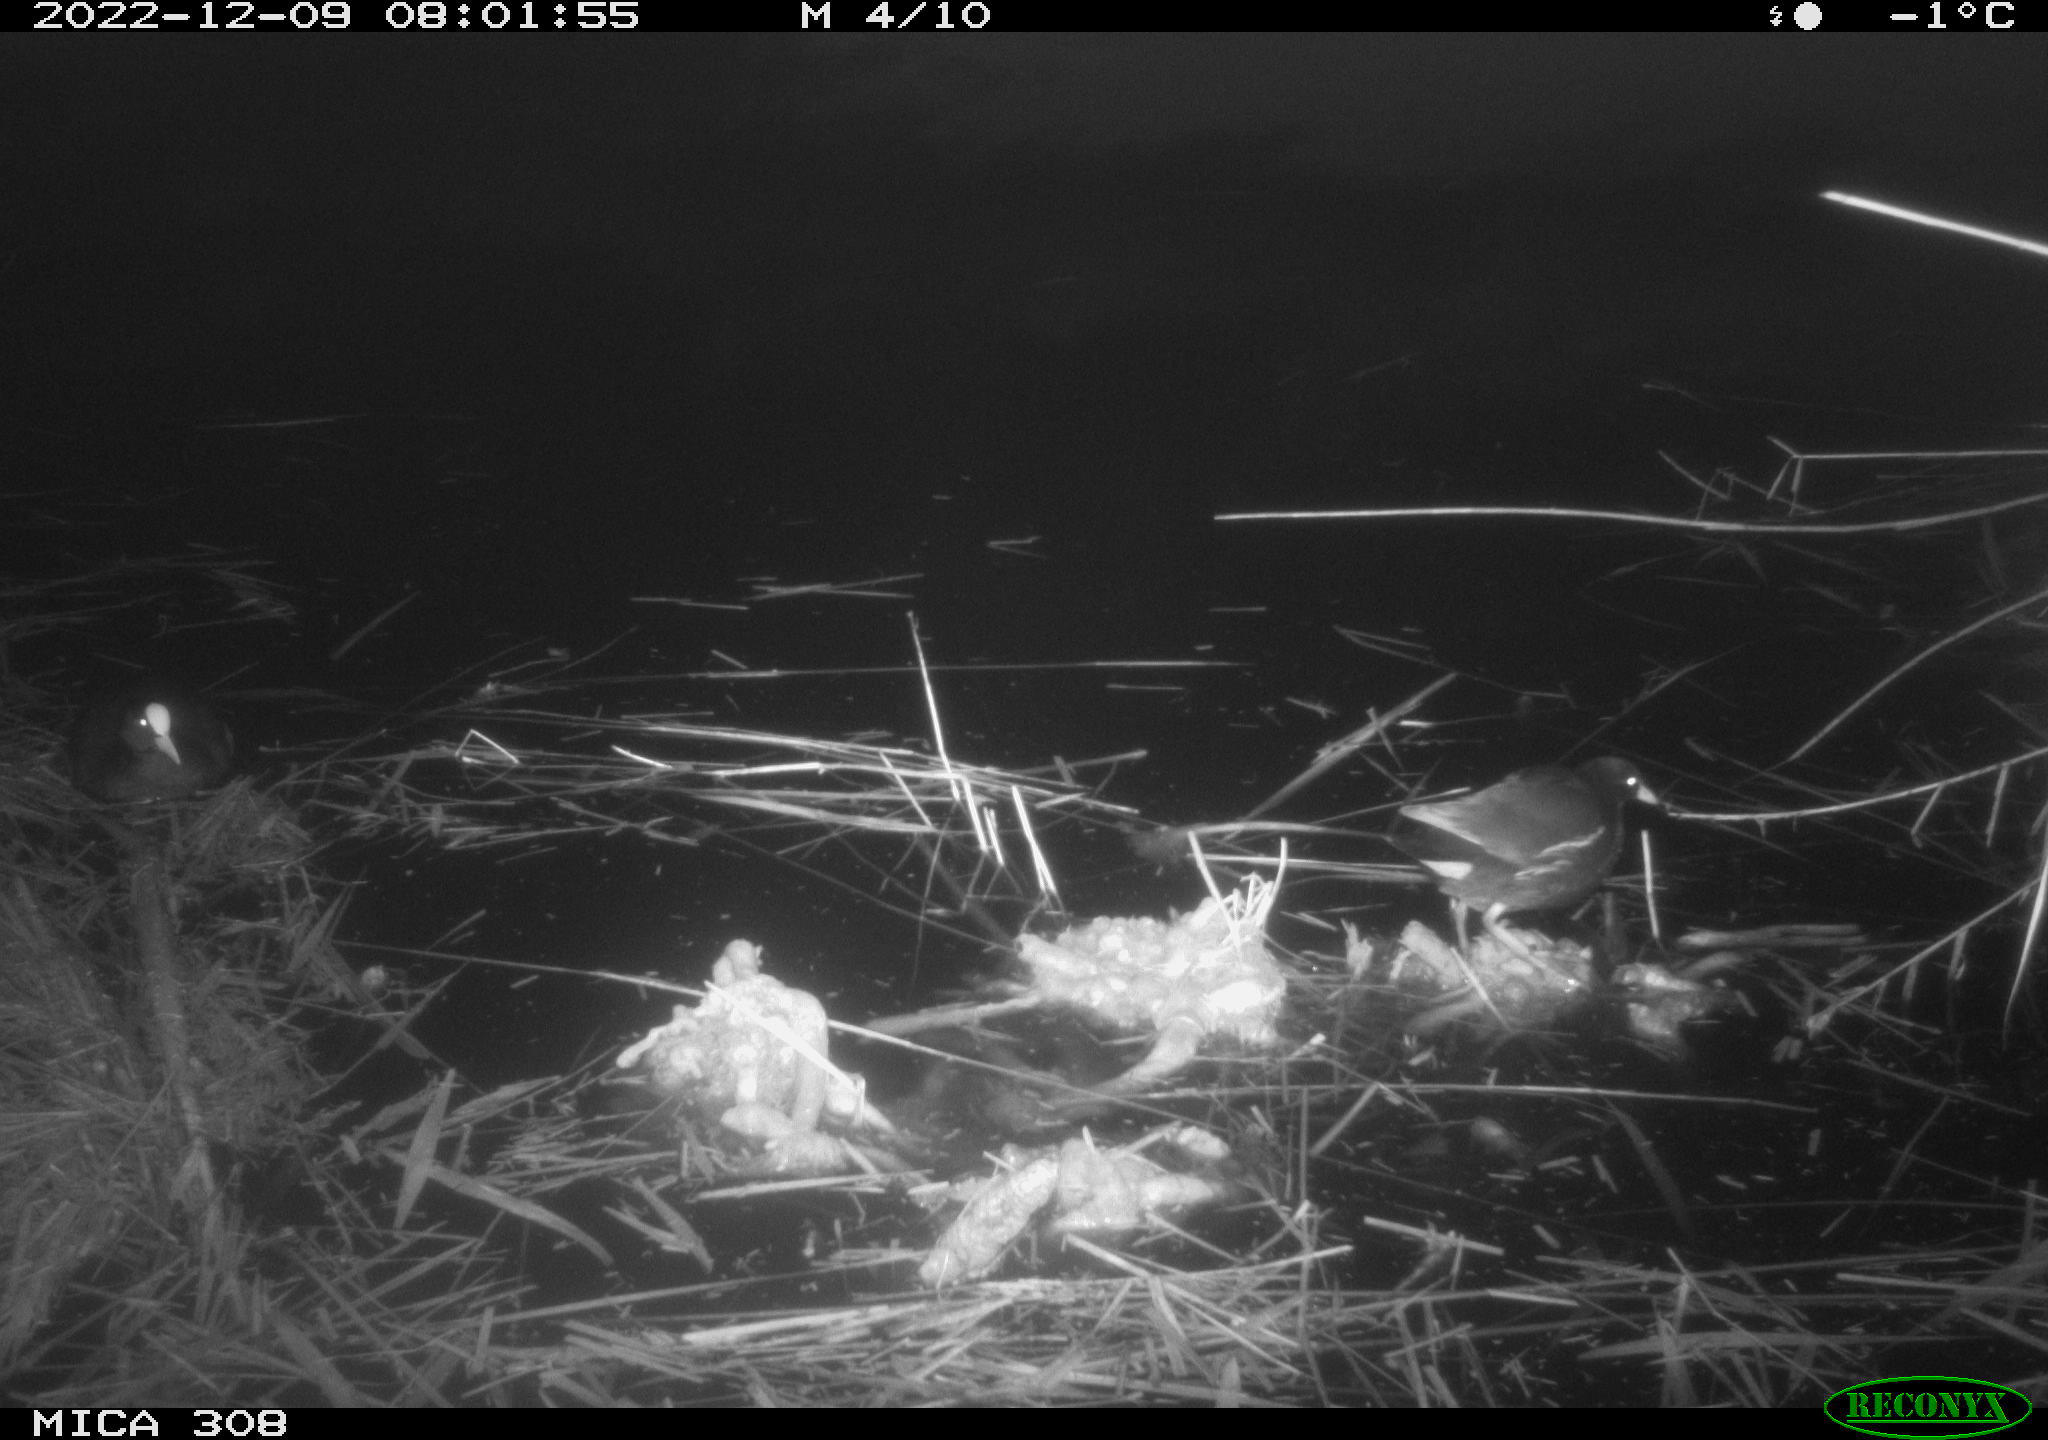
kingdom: Animalia
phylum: Chordata
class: Aves
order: Anseriformes
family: Anatidae
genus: Anas
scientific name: Anas
